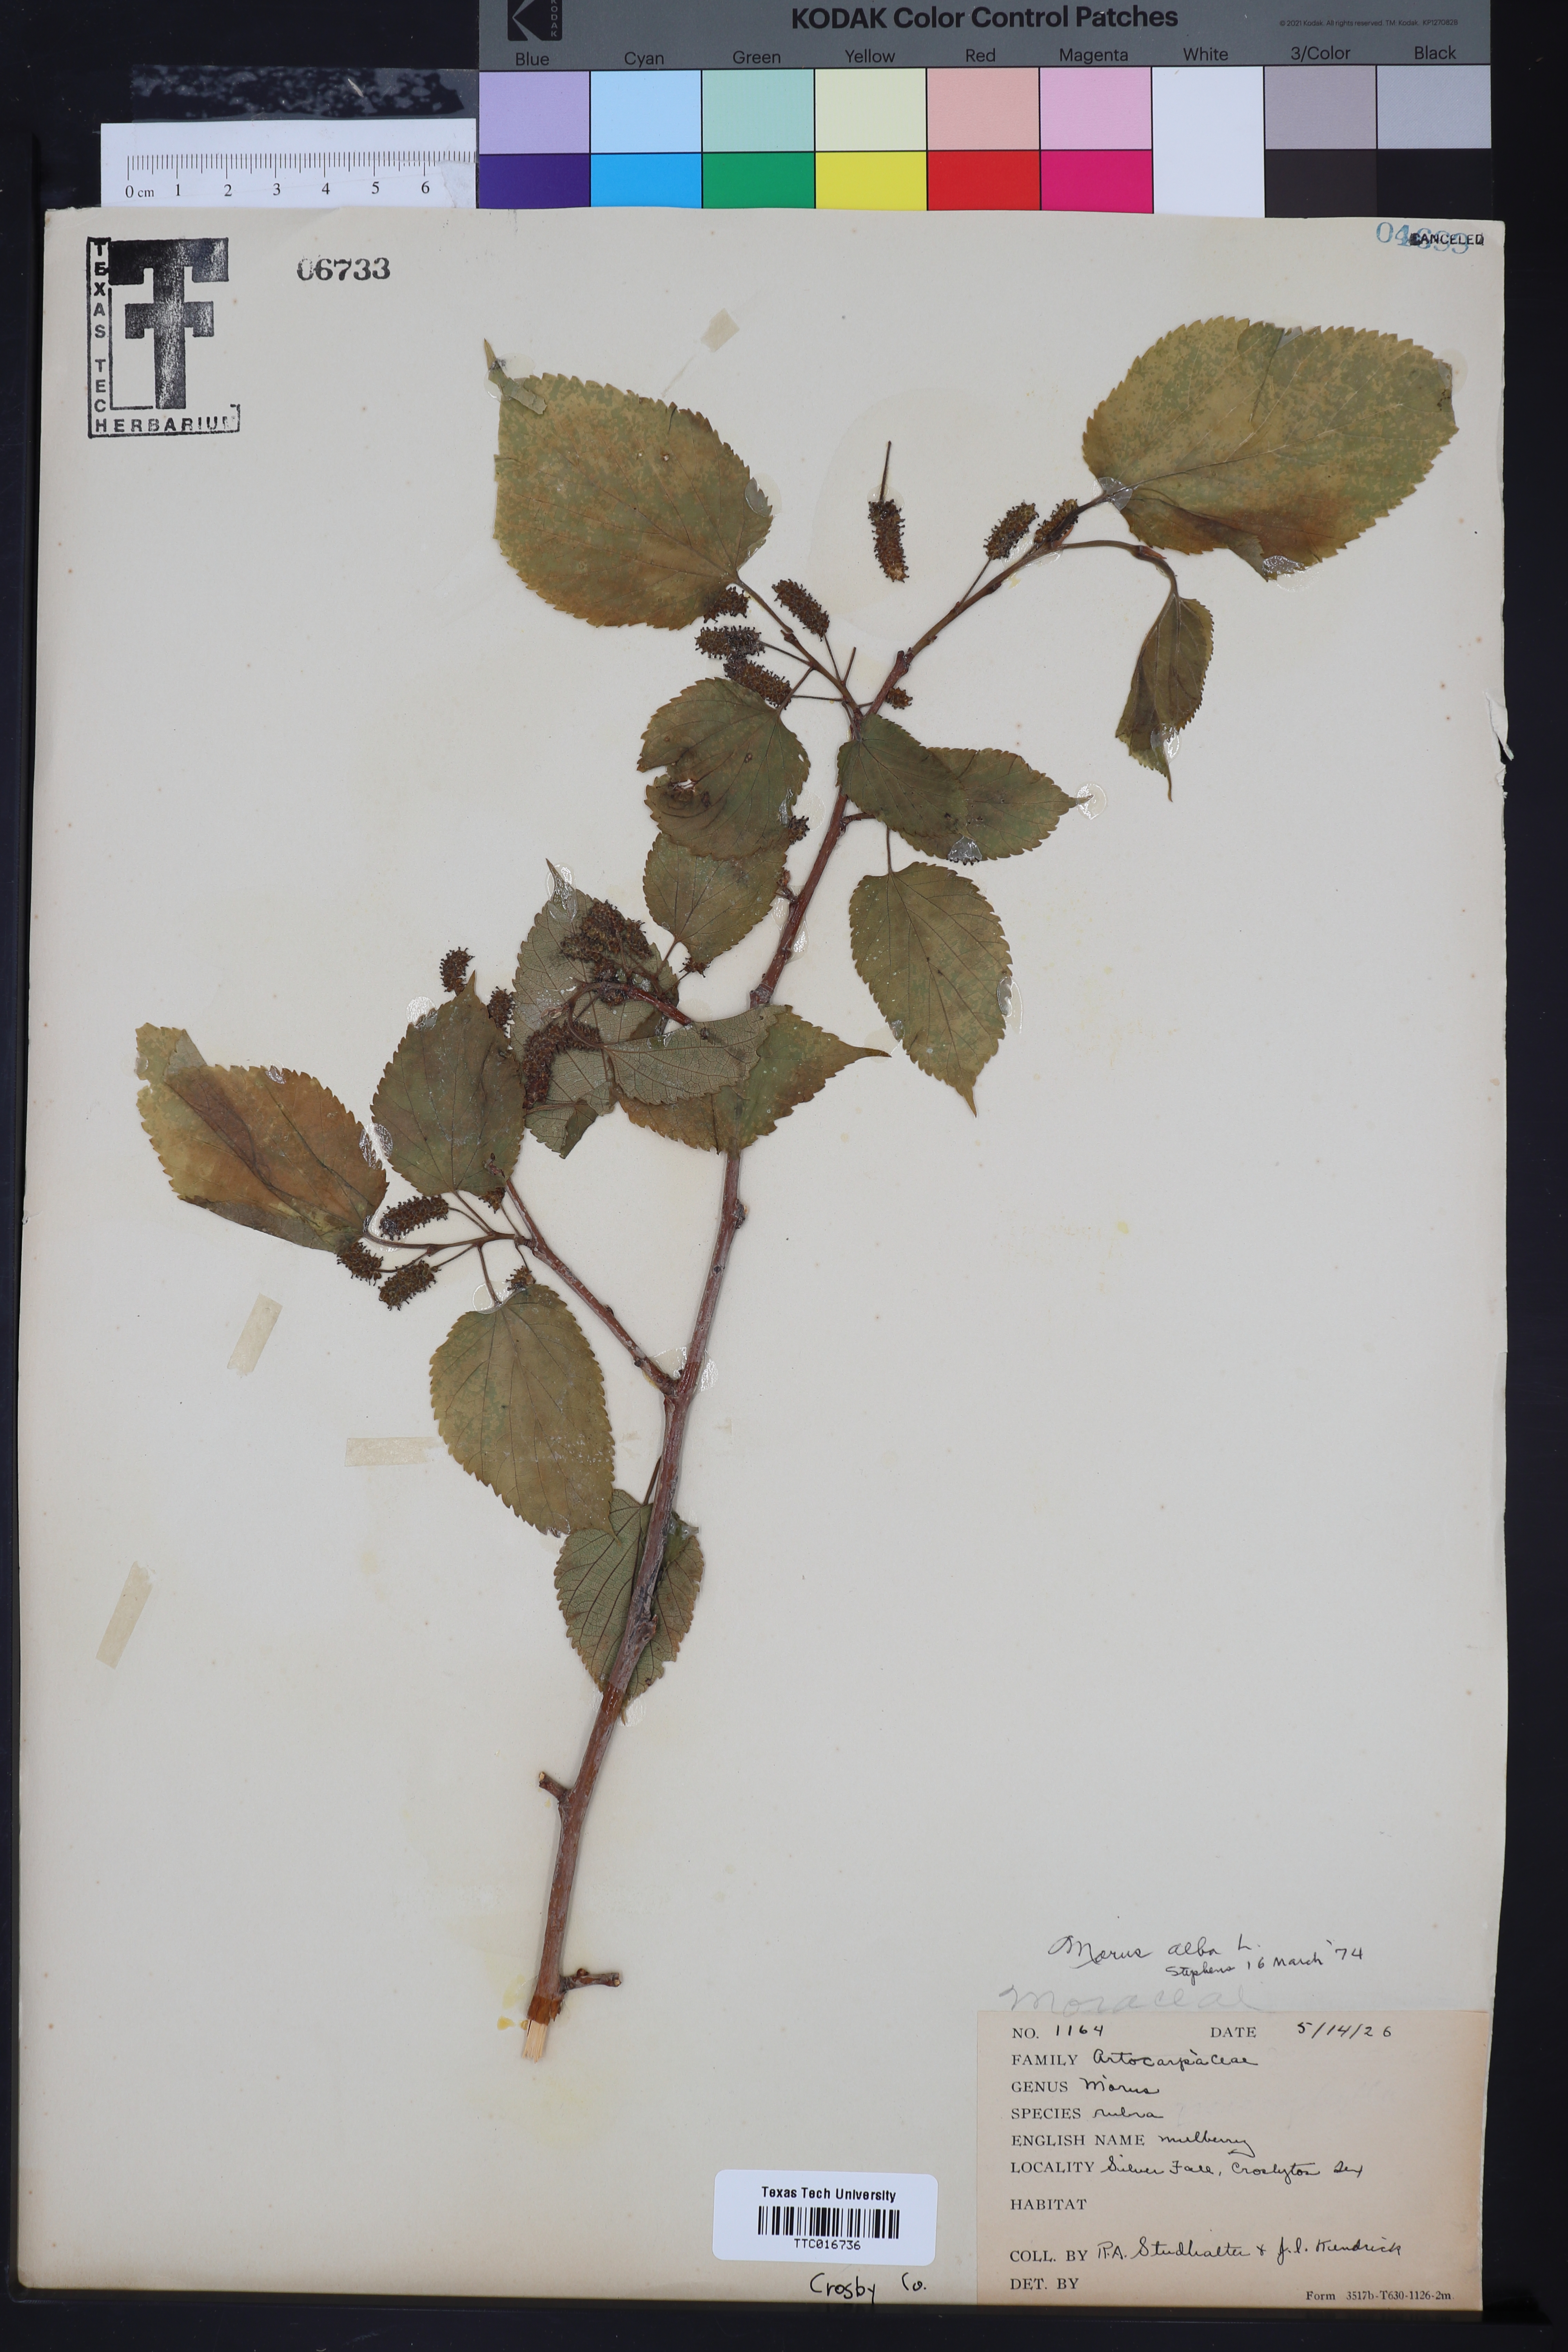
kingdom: Plantae
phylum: Tracheophyta
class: Magnoliopsida
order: Rosales
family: Moraceae
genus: Morus
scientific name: Morus alba
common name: White mulberry
